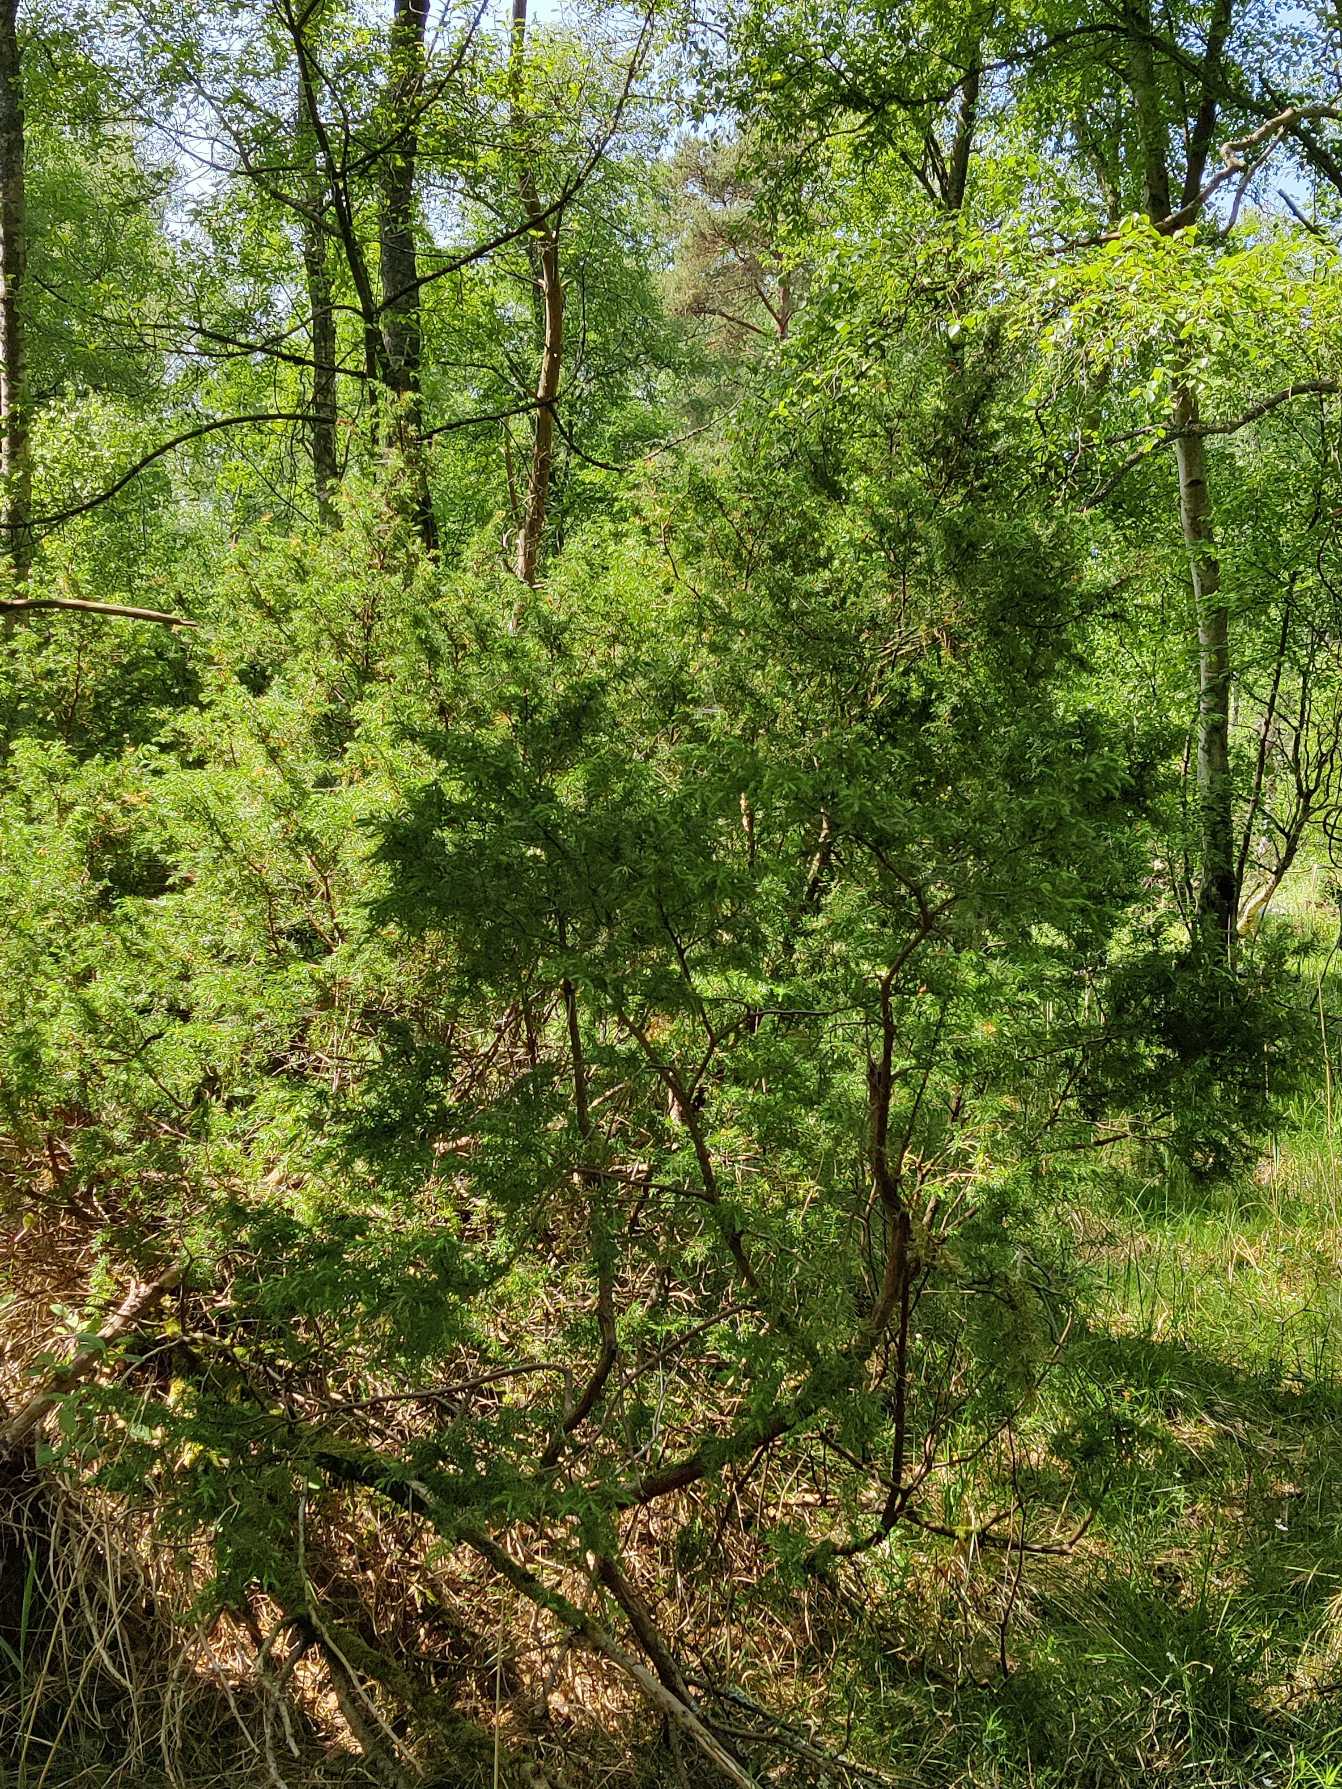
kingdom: Plantae
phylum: Tracheophyta
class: Pinopsida
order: Pinales
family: Cupressaceae
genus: Juniperus
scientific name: Juniperus communis
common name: Almindelig ene
